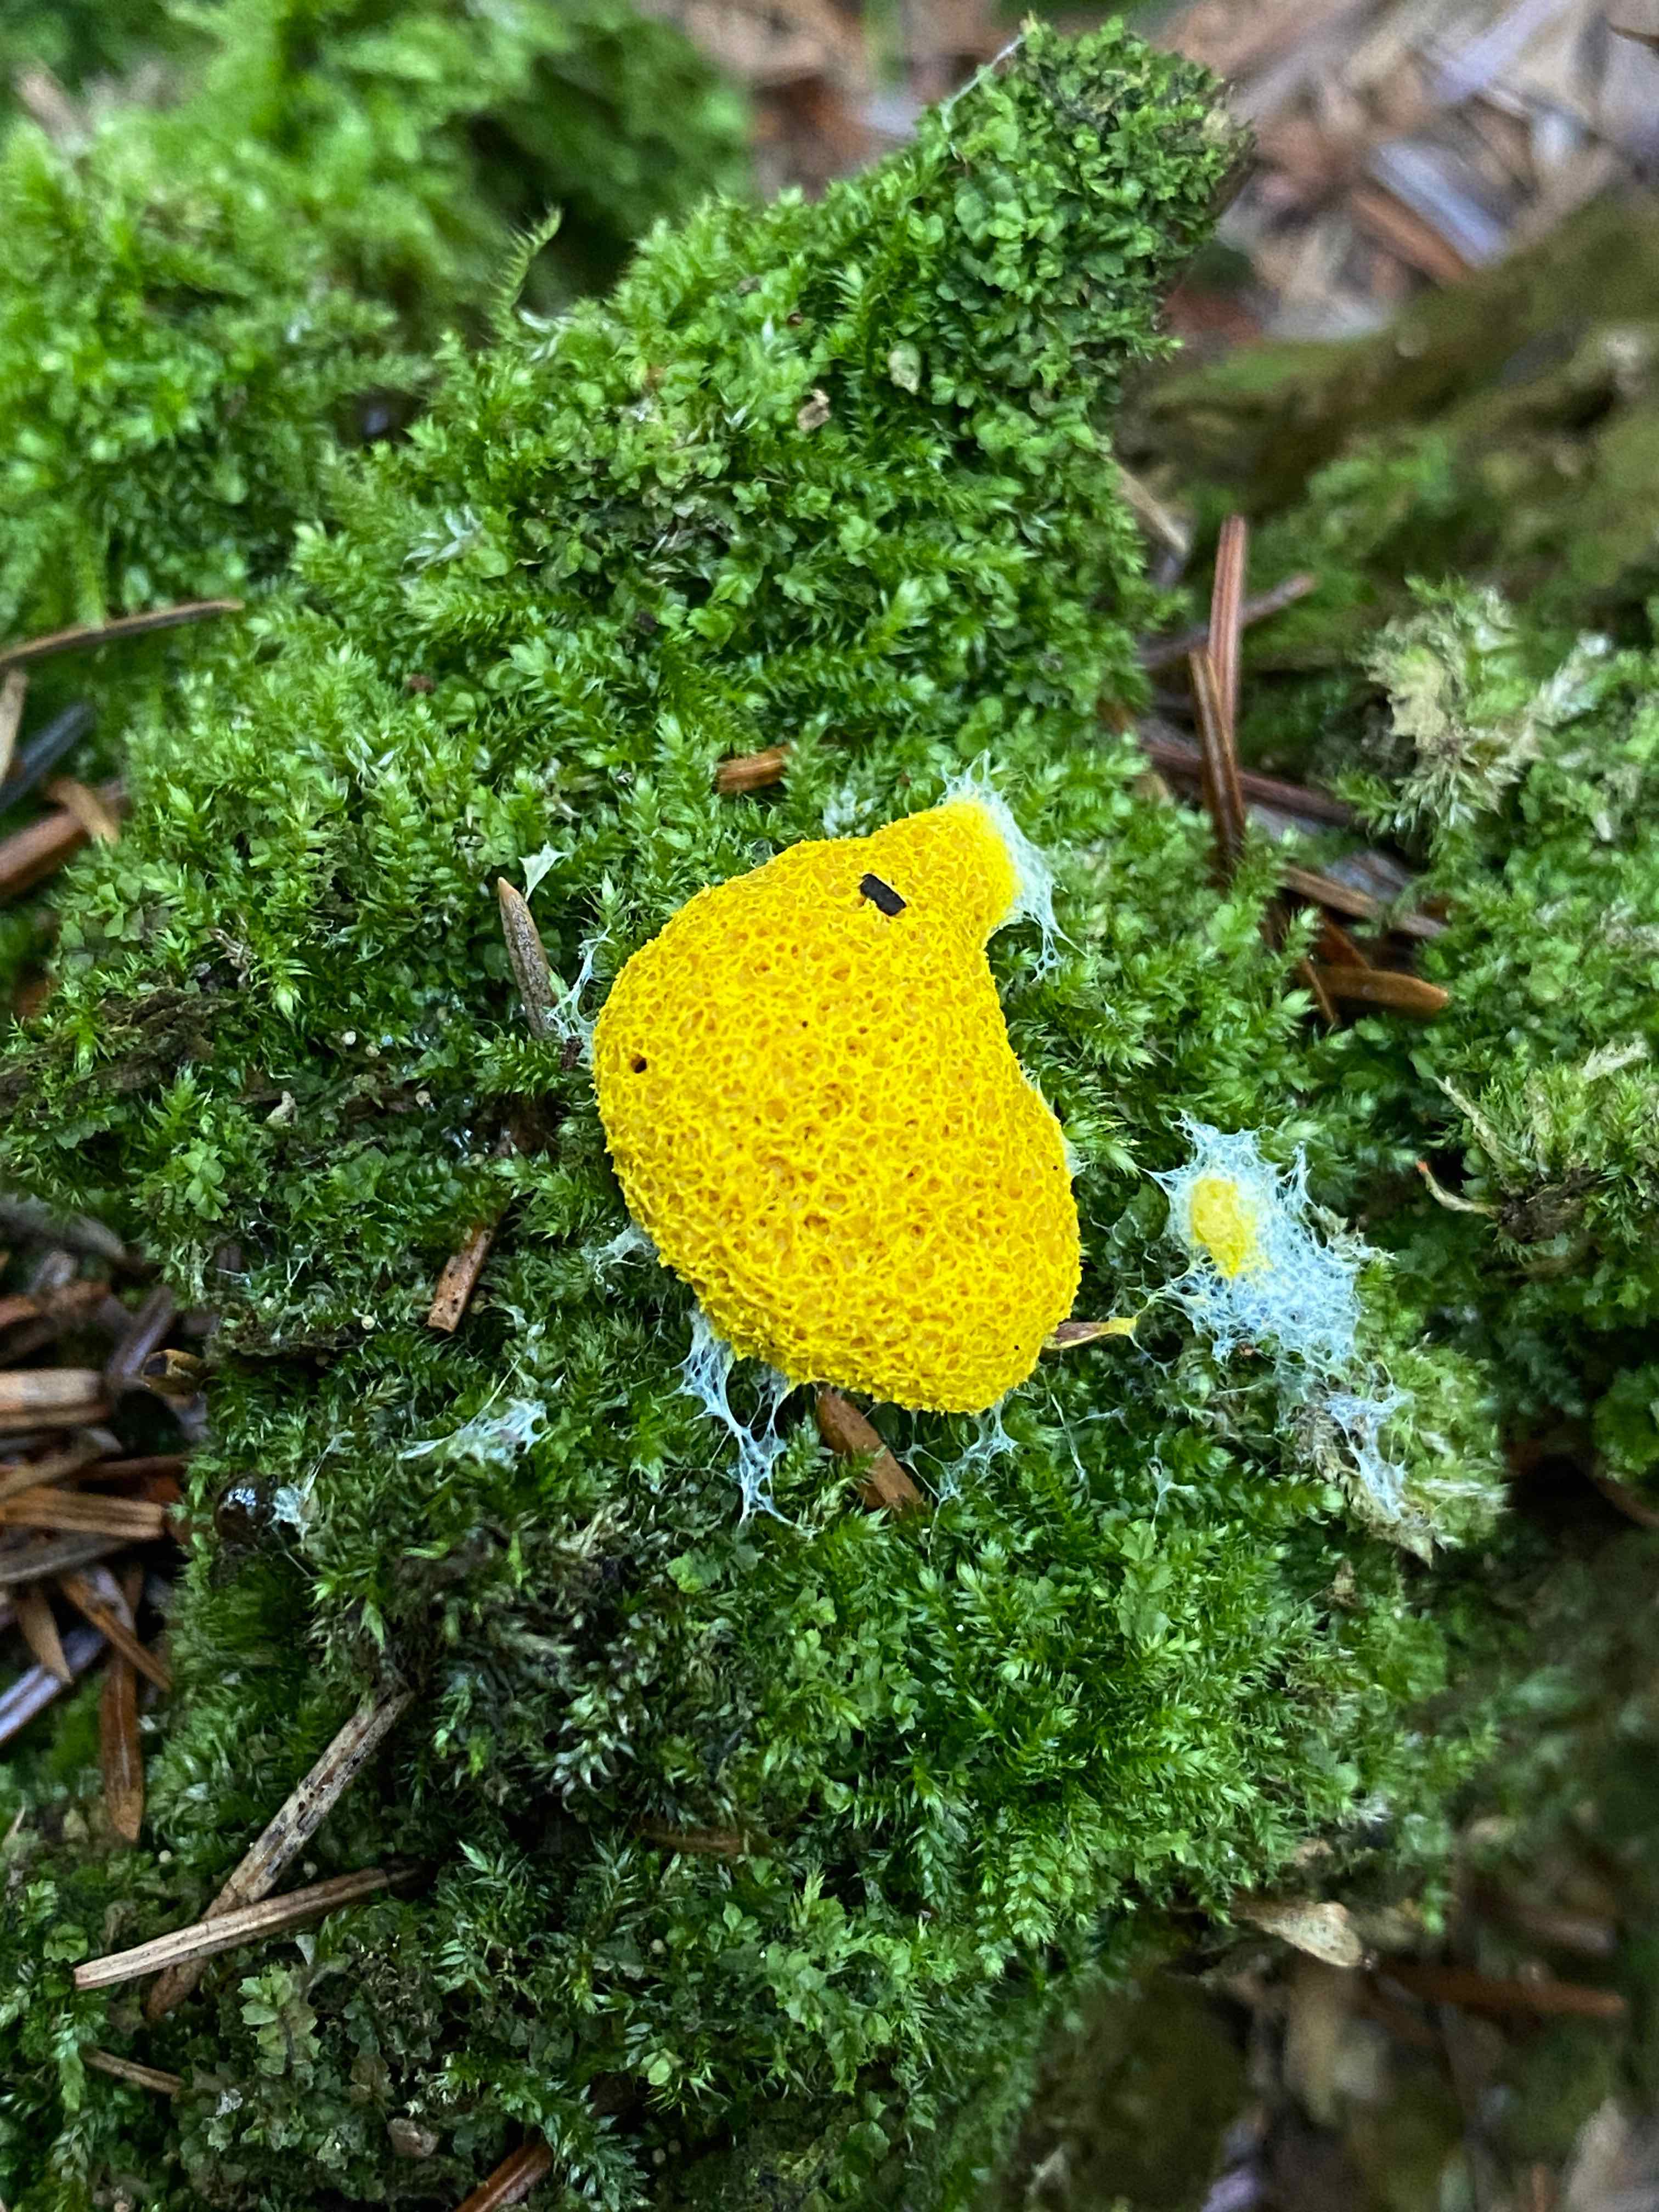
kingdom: Protozoa
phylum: Mycetozoa
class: Myxomycetes
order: Physarales
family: Physaraceae
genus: Fuligo
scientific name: Fuligo septica
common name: gul troldsmør
